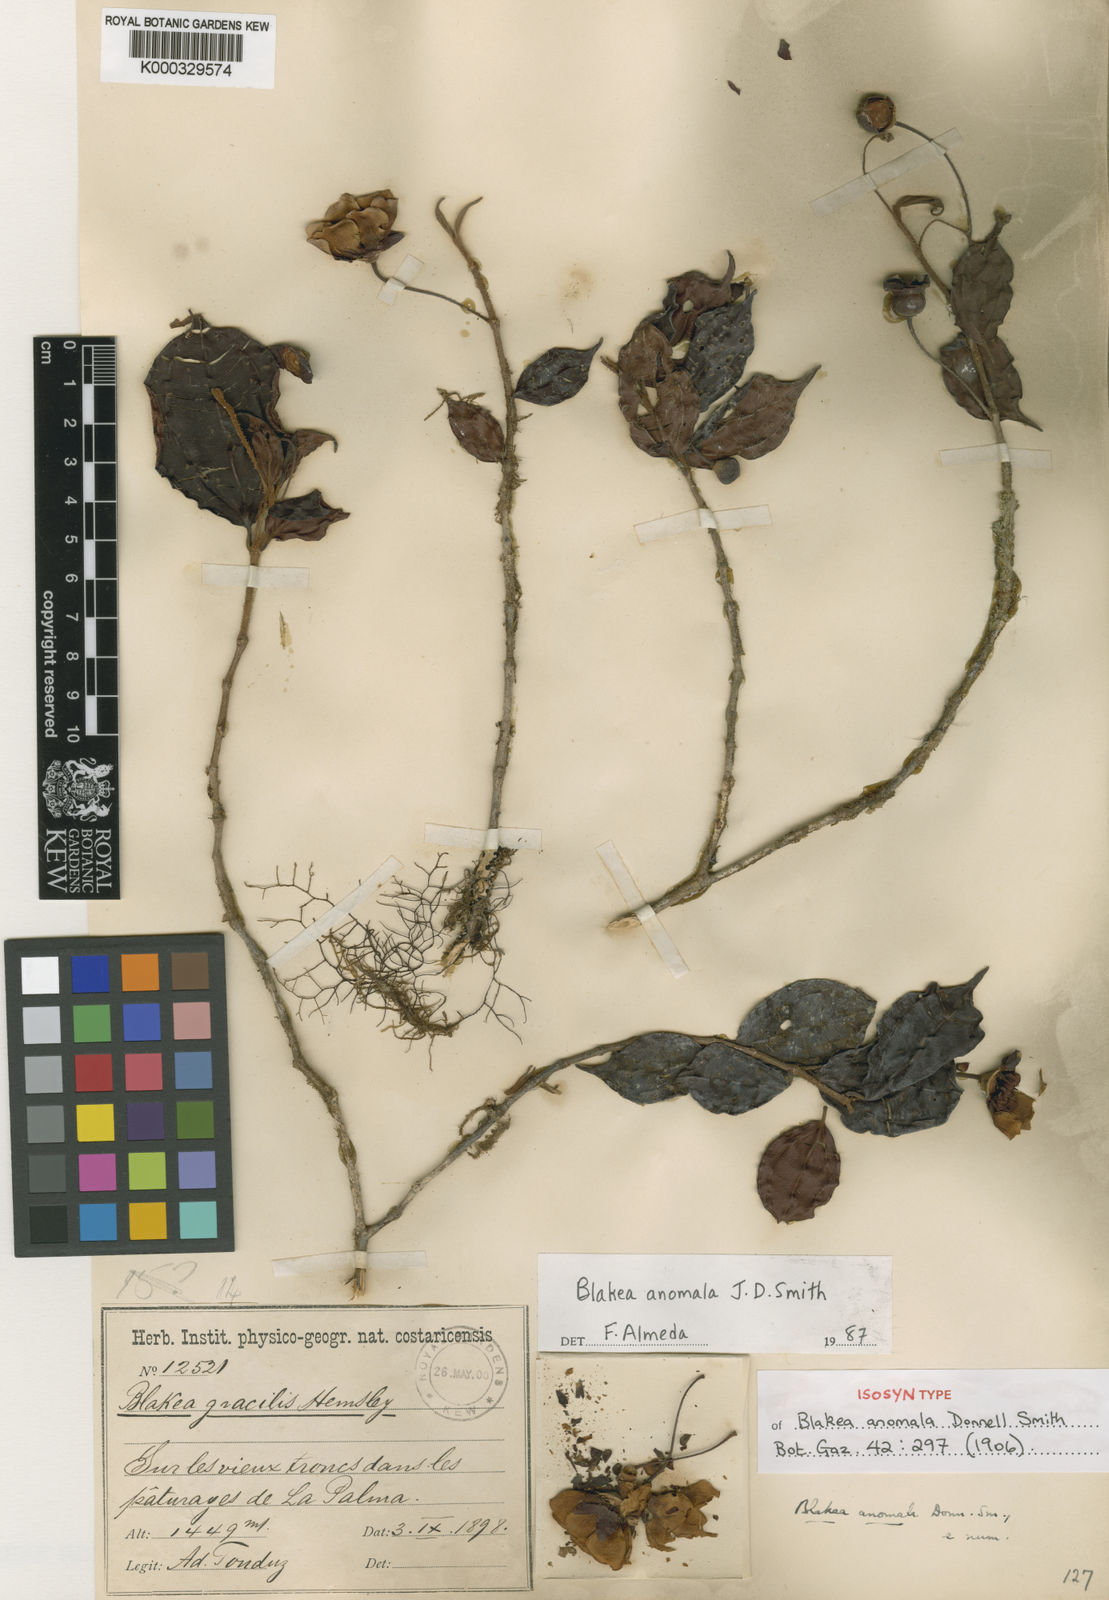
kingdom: Plantae
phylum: Tracheophyta
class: Magnoliopsida
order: Myrtales
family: Melastomataceae
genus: Blakea
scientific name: Blakea anomala
